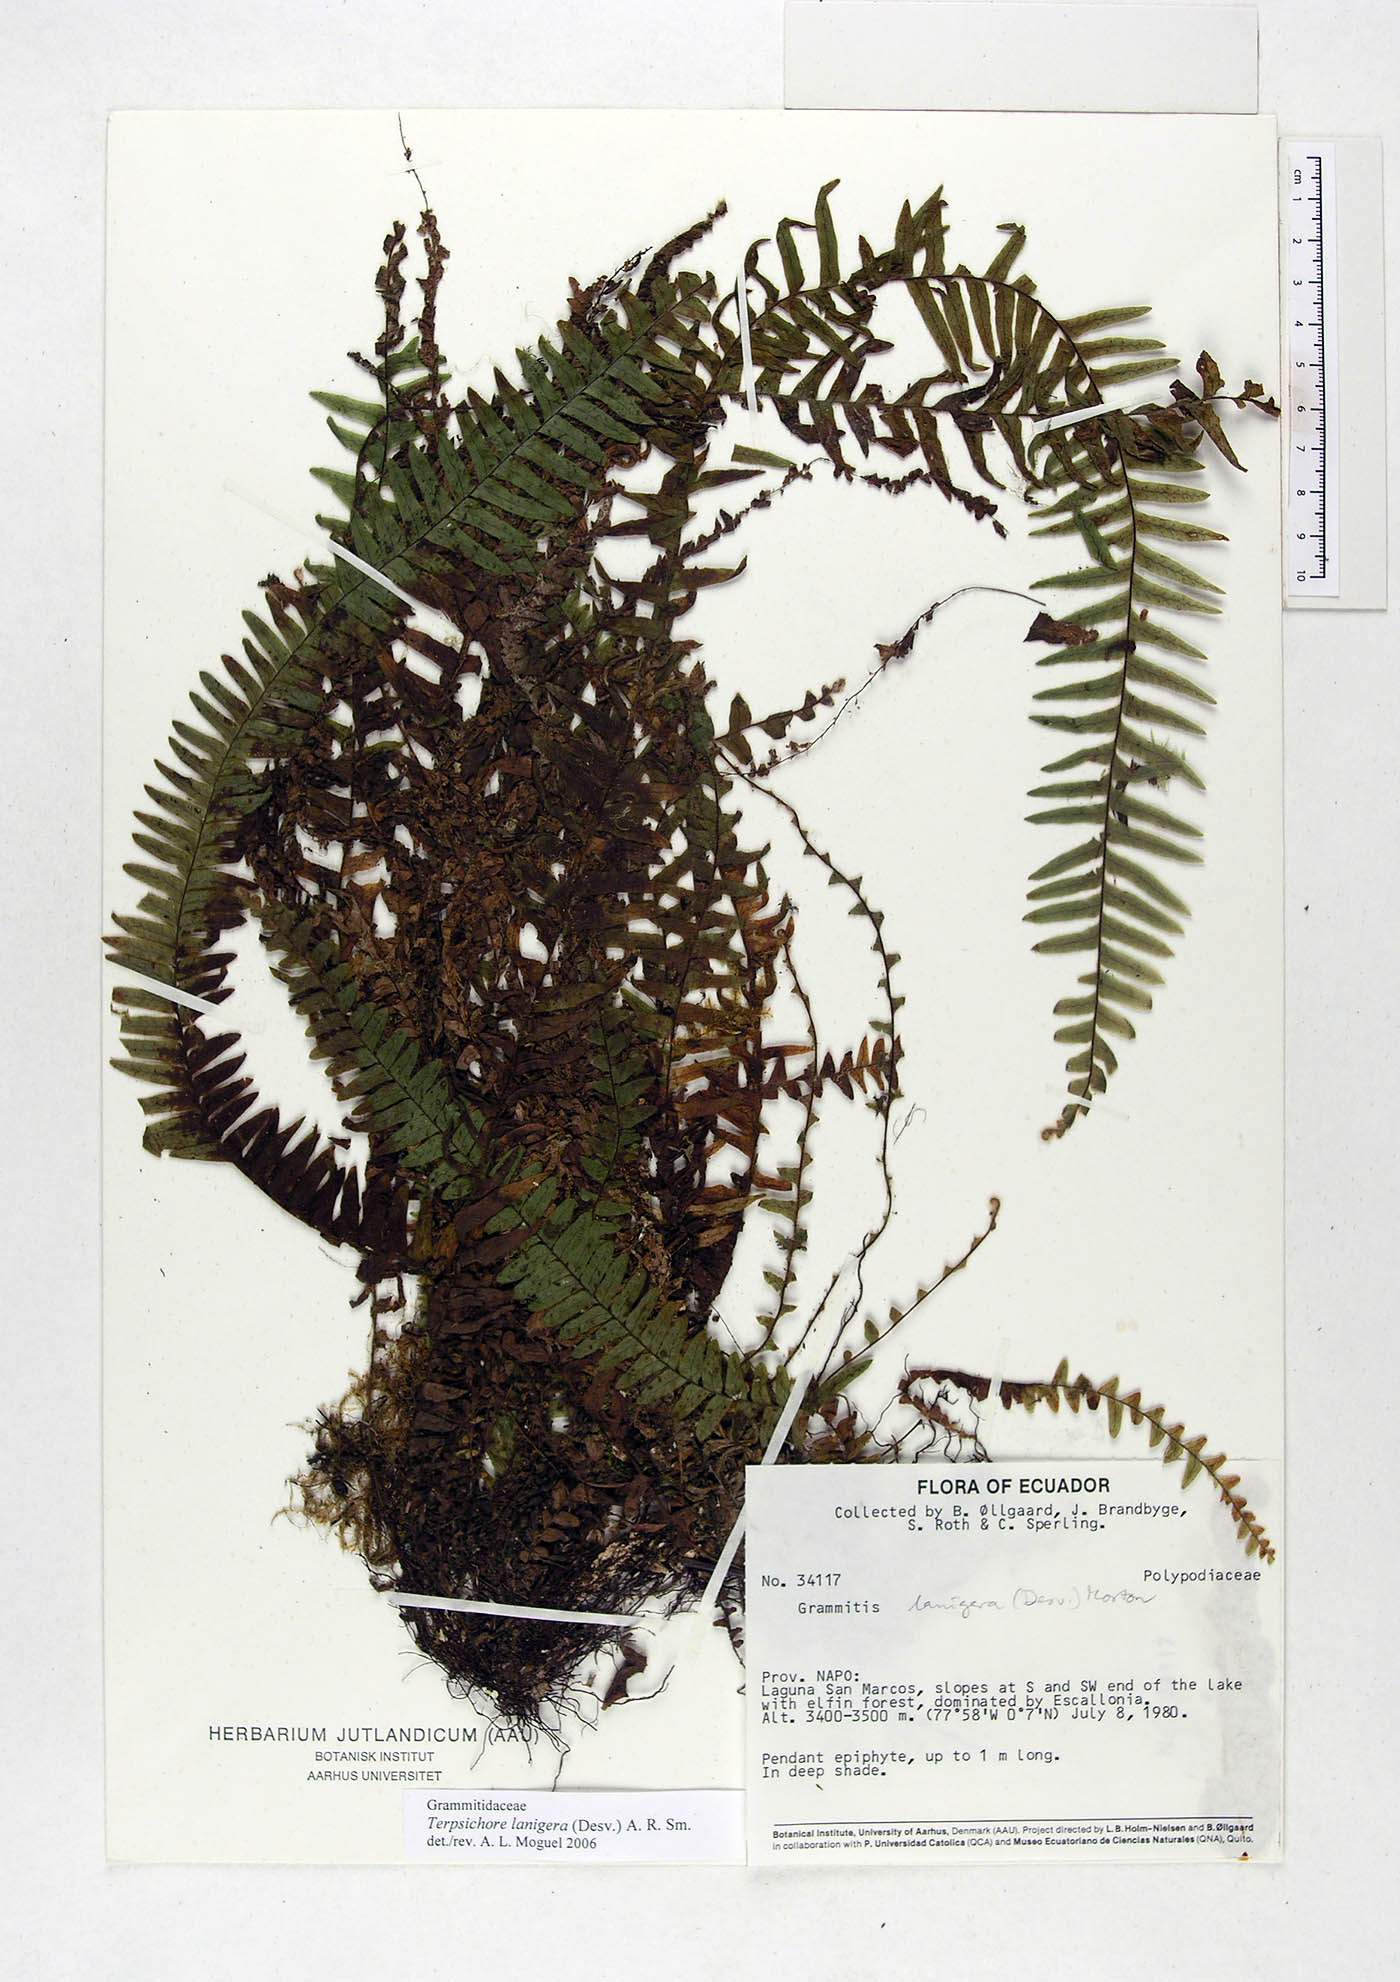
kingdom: Plantae
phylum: Tracheophyta
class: Polypodiopsida
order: Polypodiales
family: Polypodiaceae
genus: Alansmia
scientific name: Alansmia lanigera
